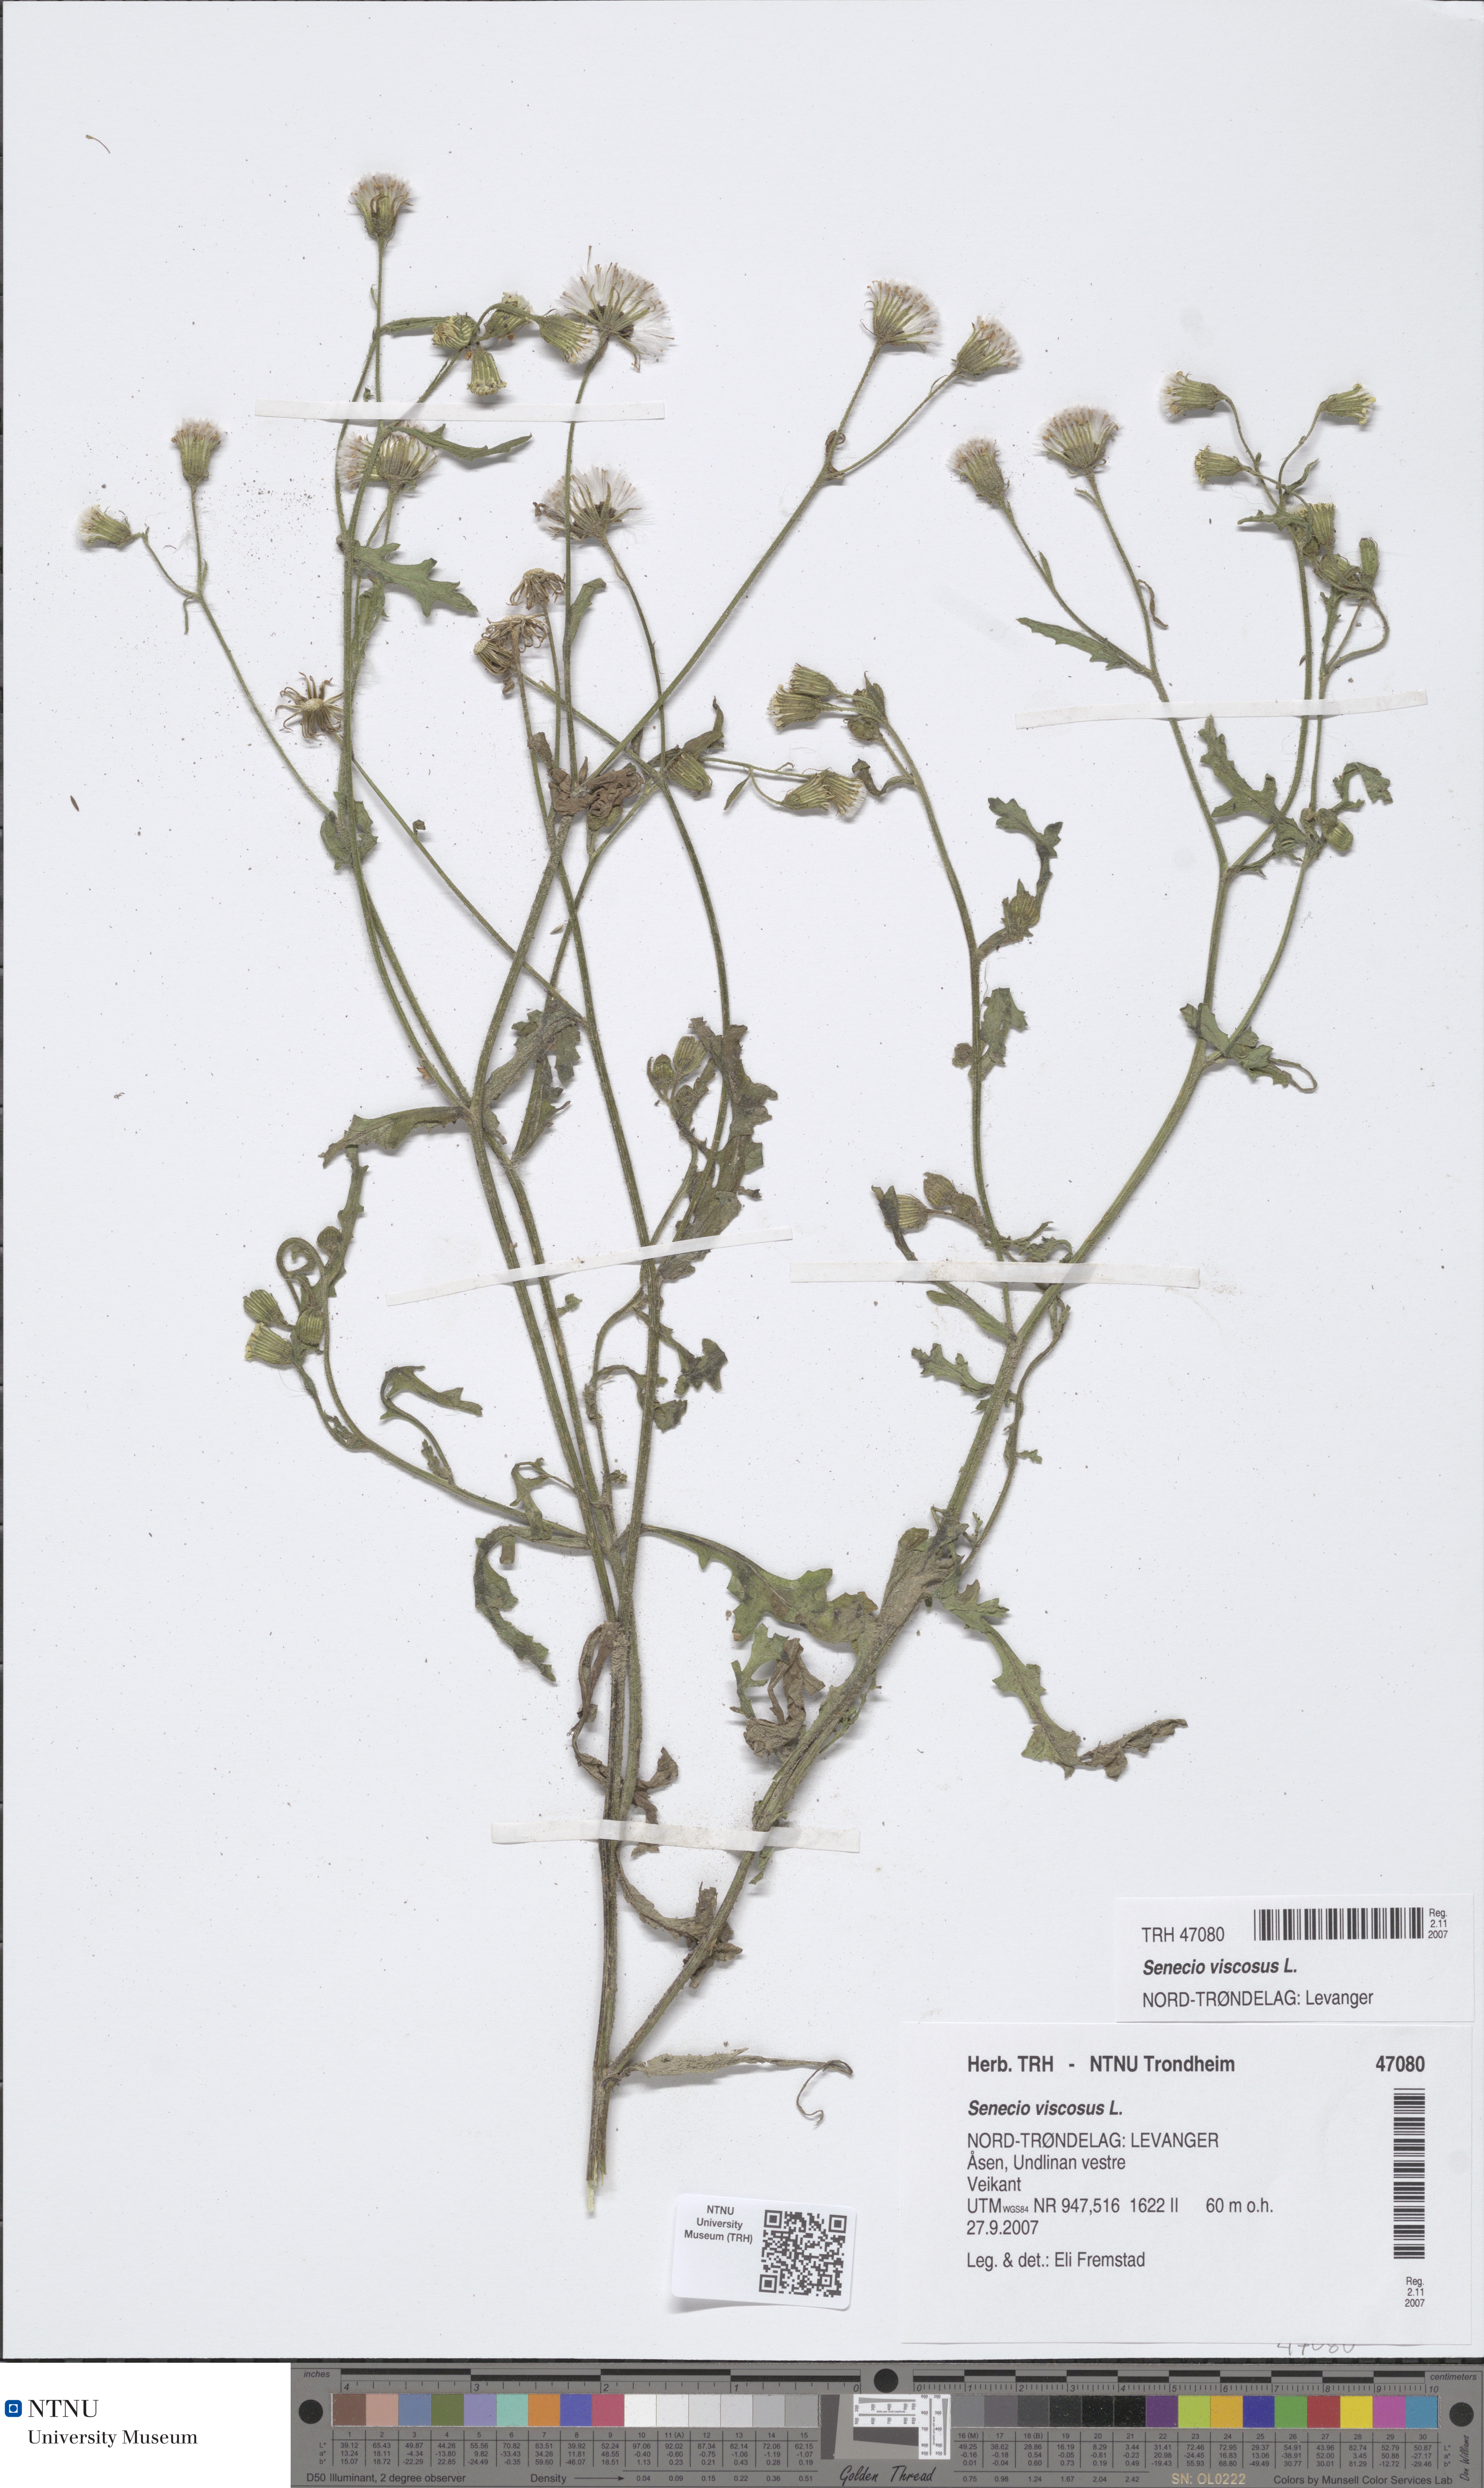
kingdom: Plantae
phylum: Tracheophyta
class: Magnoliopsida
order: Asterales
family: Asteraceae
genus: Senecio
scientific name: Senecio viscosus
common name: Sticky groundsel
